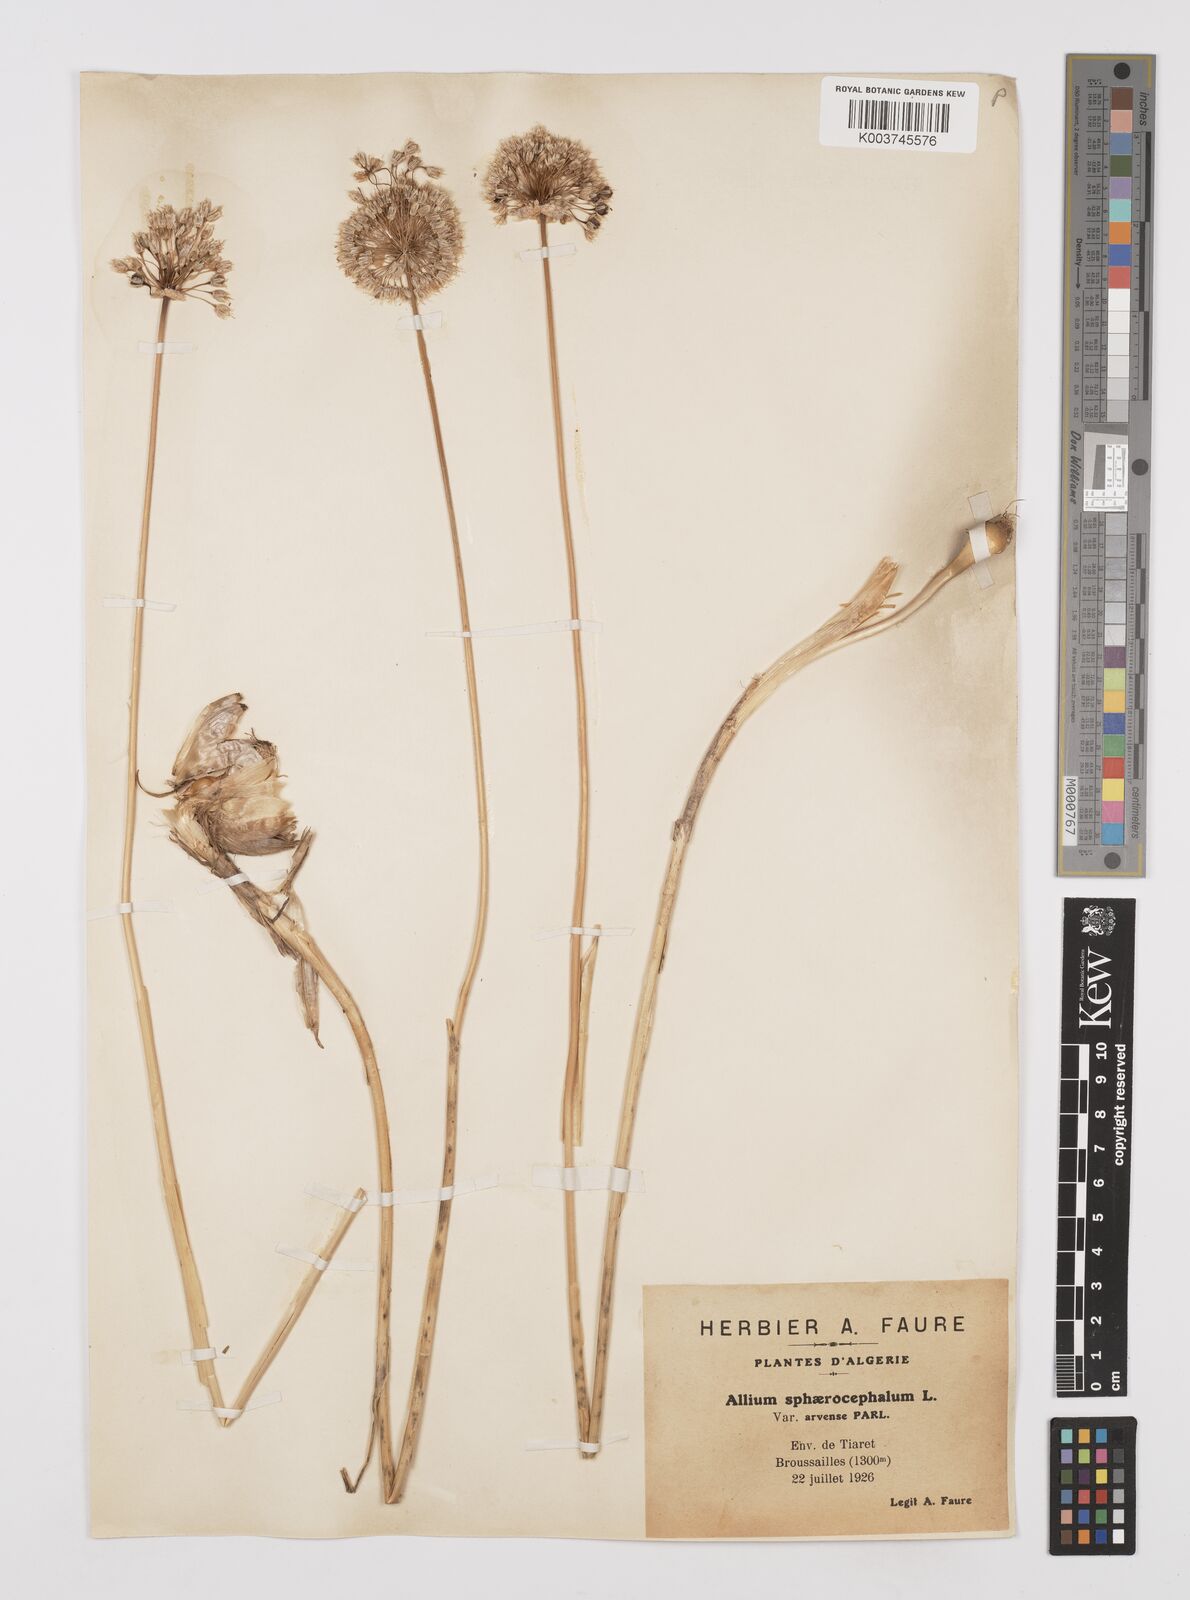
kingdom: Plantae
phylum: Tracheophyta
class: Liliopsida
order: Asparagales
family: Amaryllidaceae
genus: Allium
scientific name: Allium sphaerocephalon
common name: Round-headed leek
